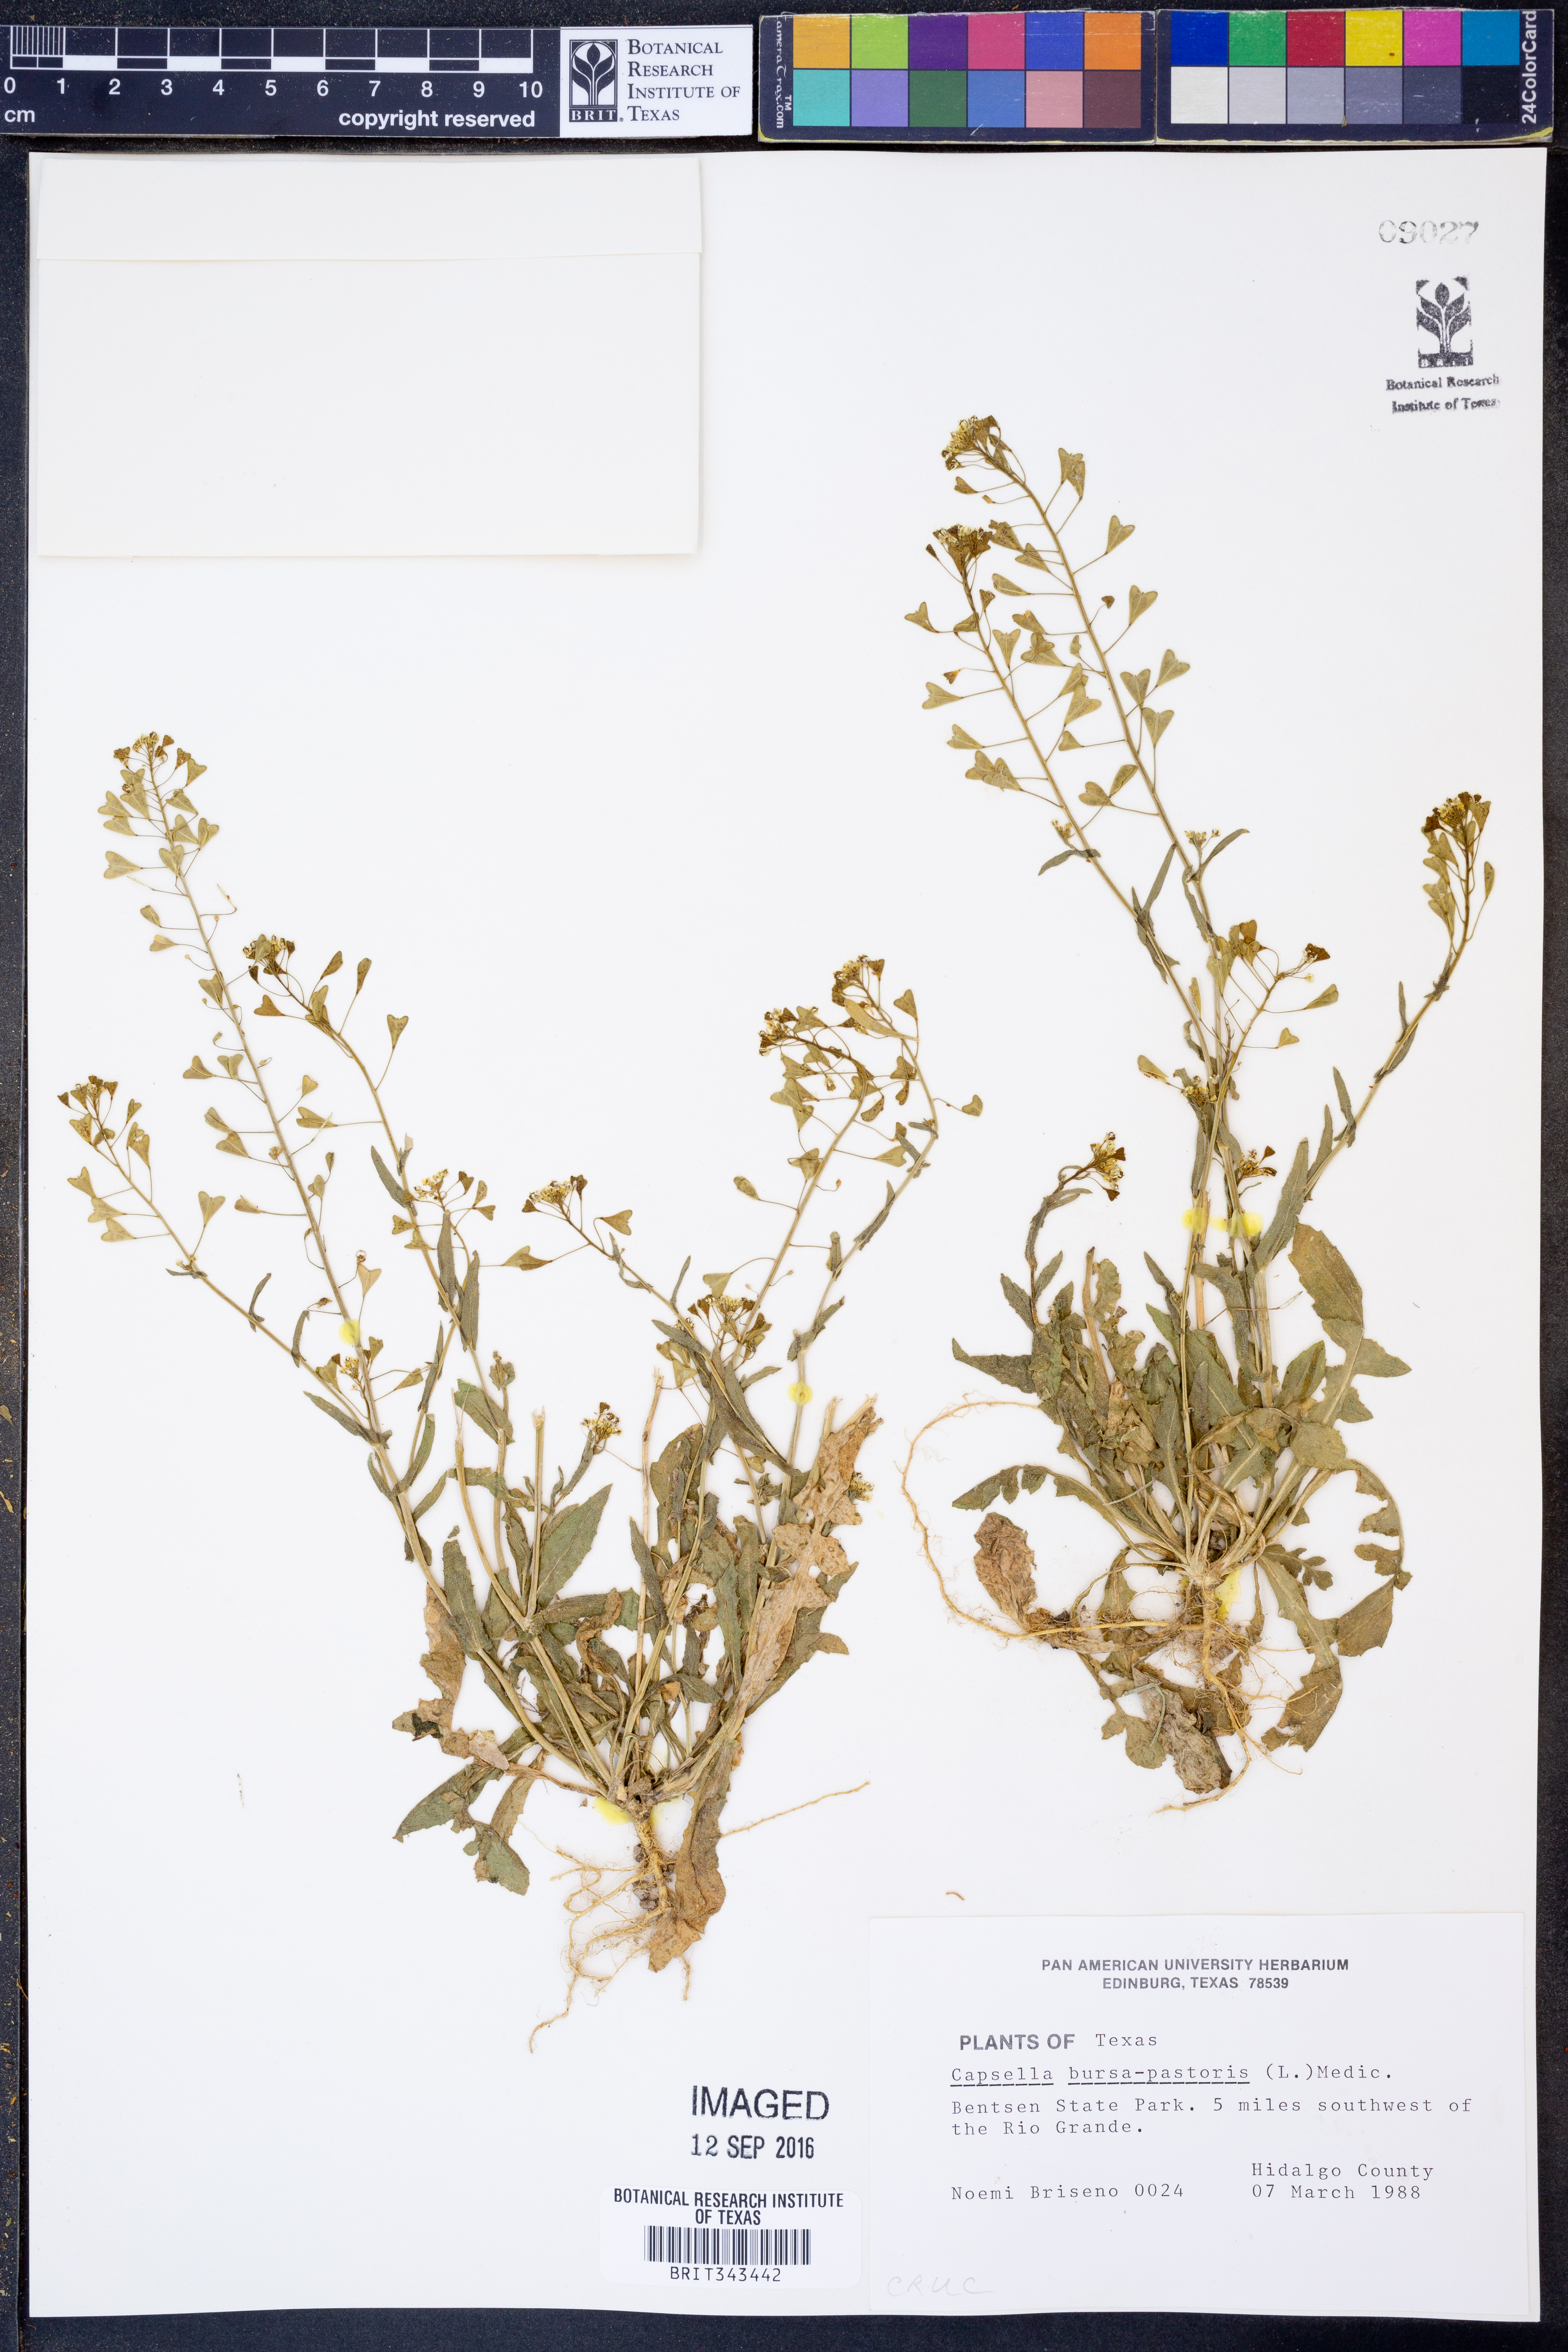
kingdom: Plantae
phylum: Tracheophyta
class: Magnoliopsida
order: Brassicales
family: Brassicaceae
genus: Capsella
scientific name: Capsella bursa-pastoris
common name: Shepherd's purse
